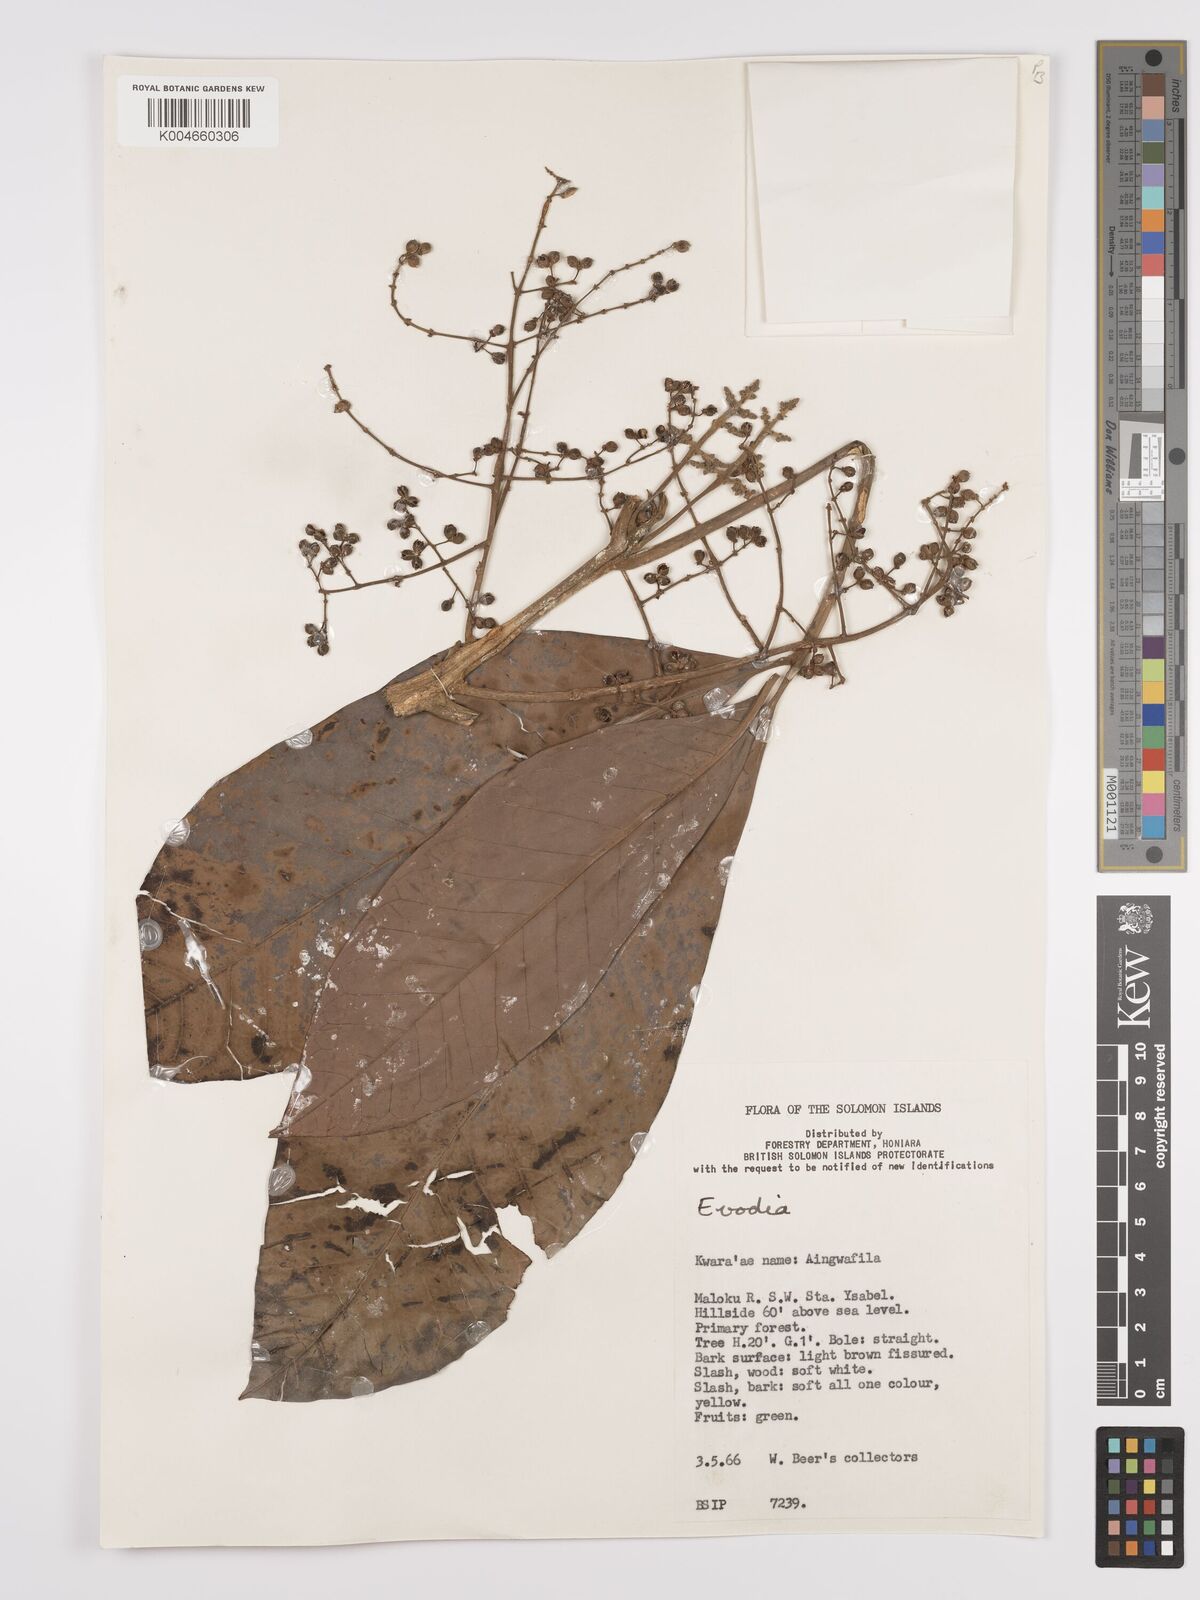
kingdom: Plantae
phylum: Tracheophyta
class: Magnoliopsida
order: Sapindales
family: Rutaceae
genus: Euodia
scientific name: Euodia
